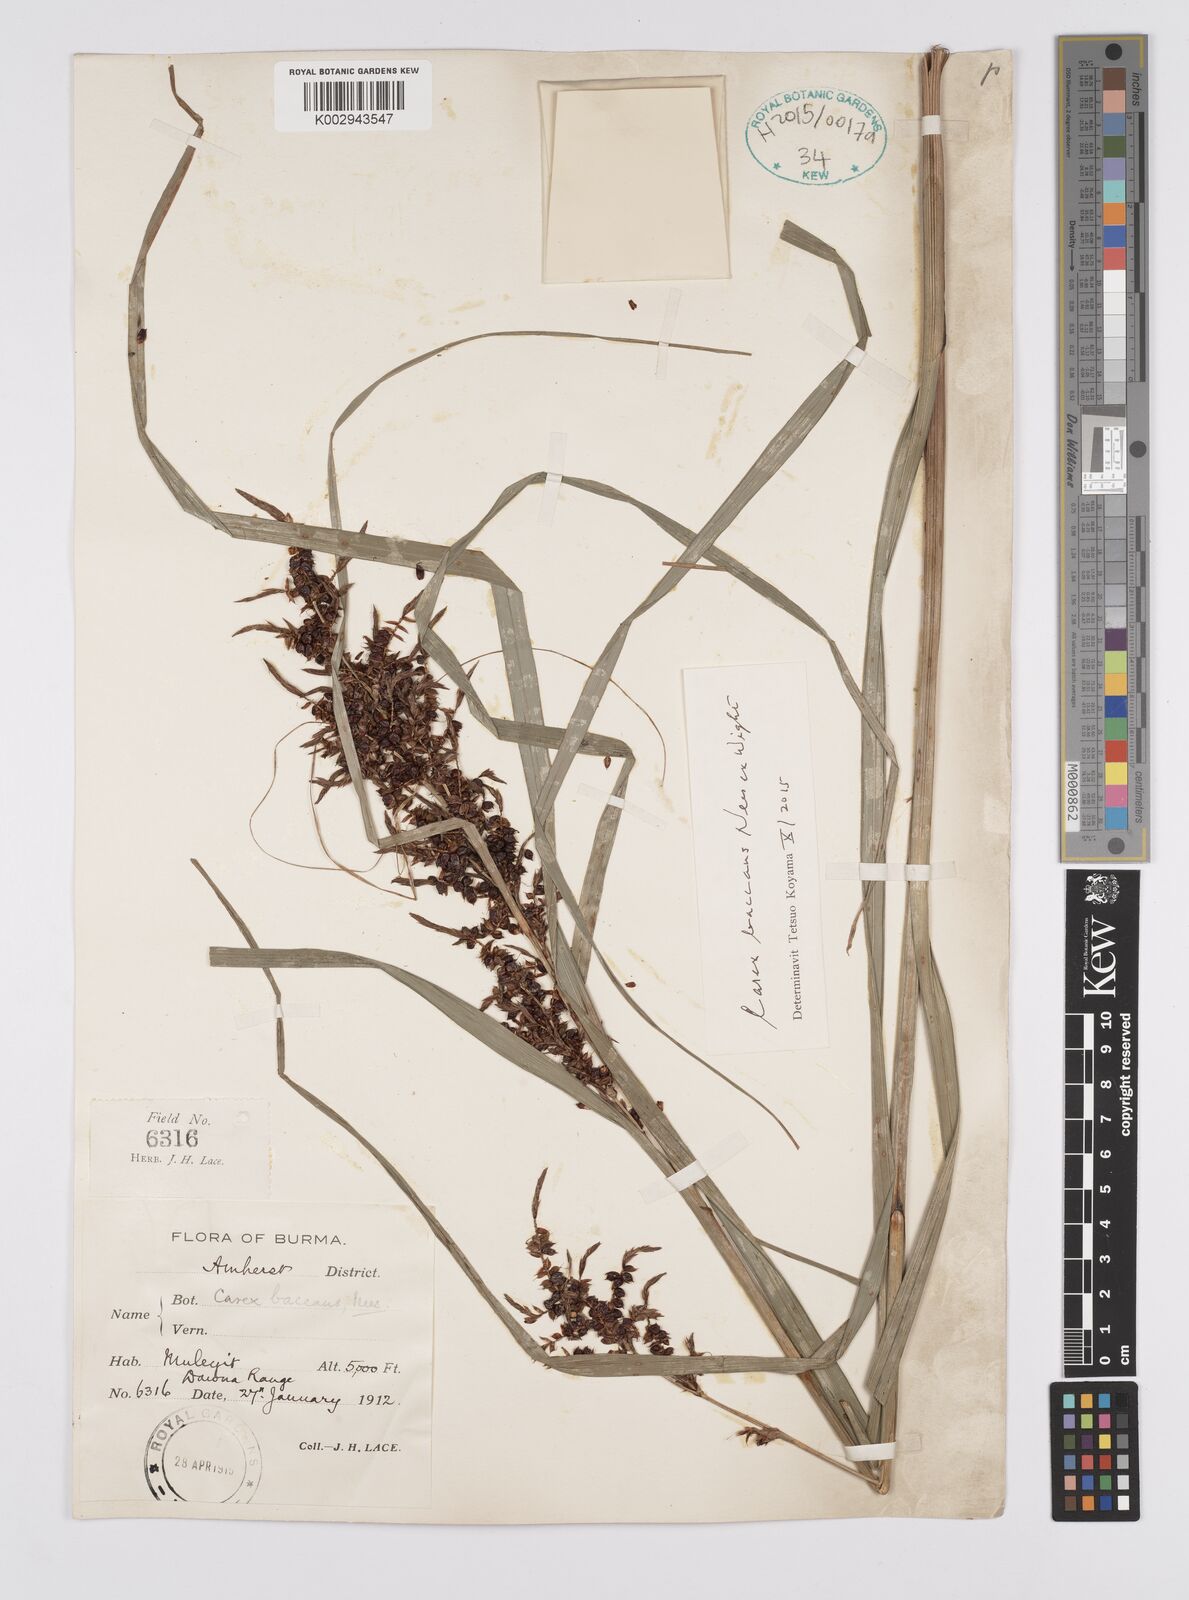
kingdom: Plantae
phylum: Tracheophyta
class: Liliopsida
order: Poales
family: Cyperaceae
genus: Carex
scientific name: Carex baccans
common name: Crimson seeded sedge
